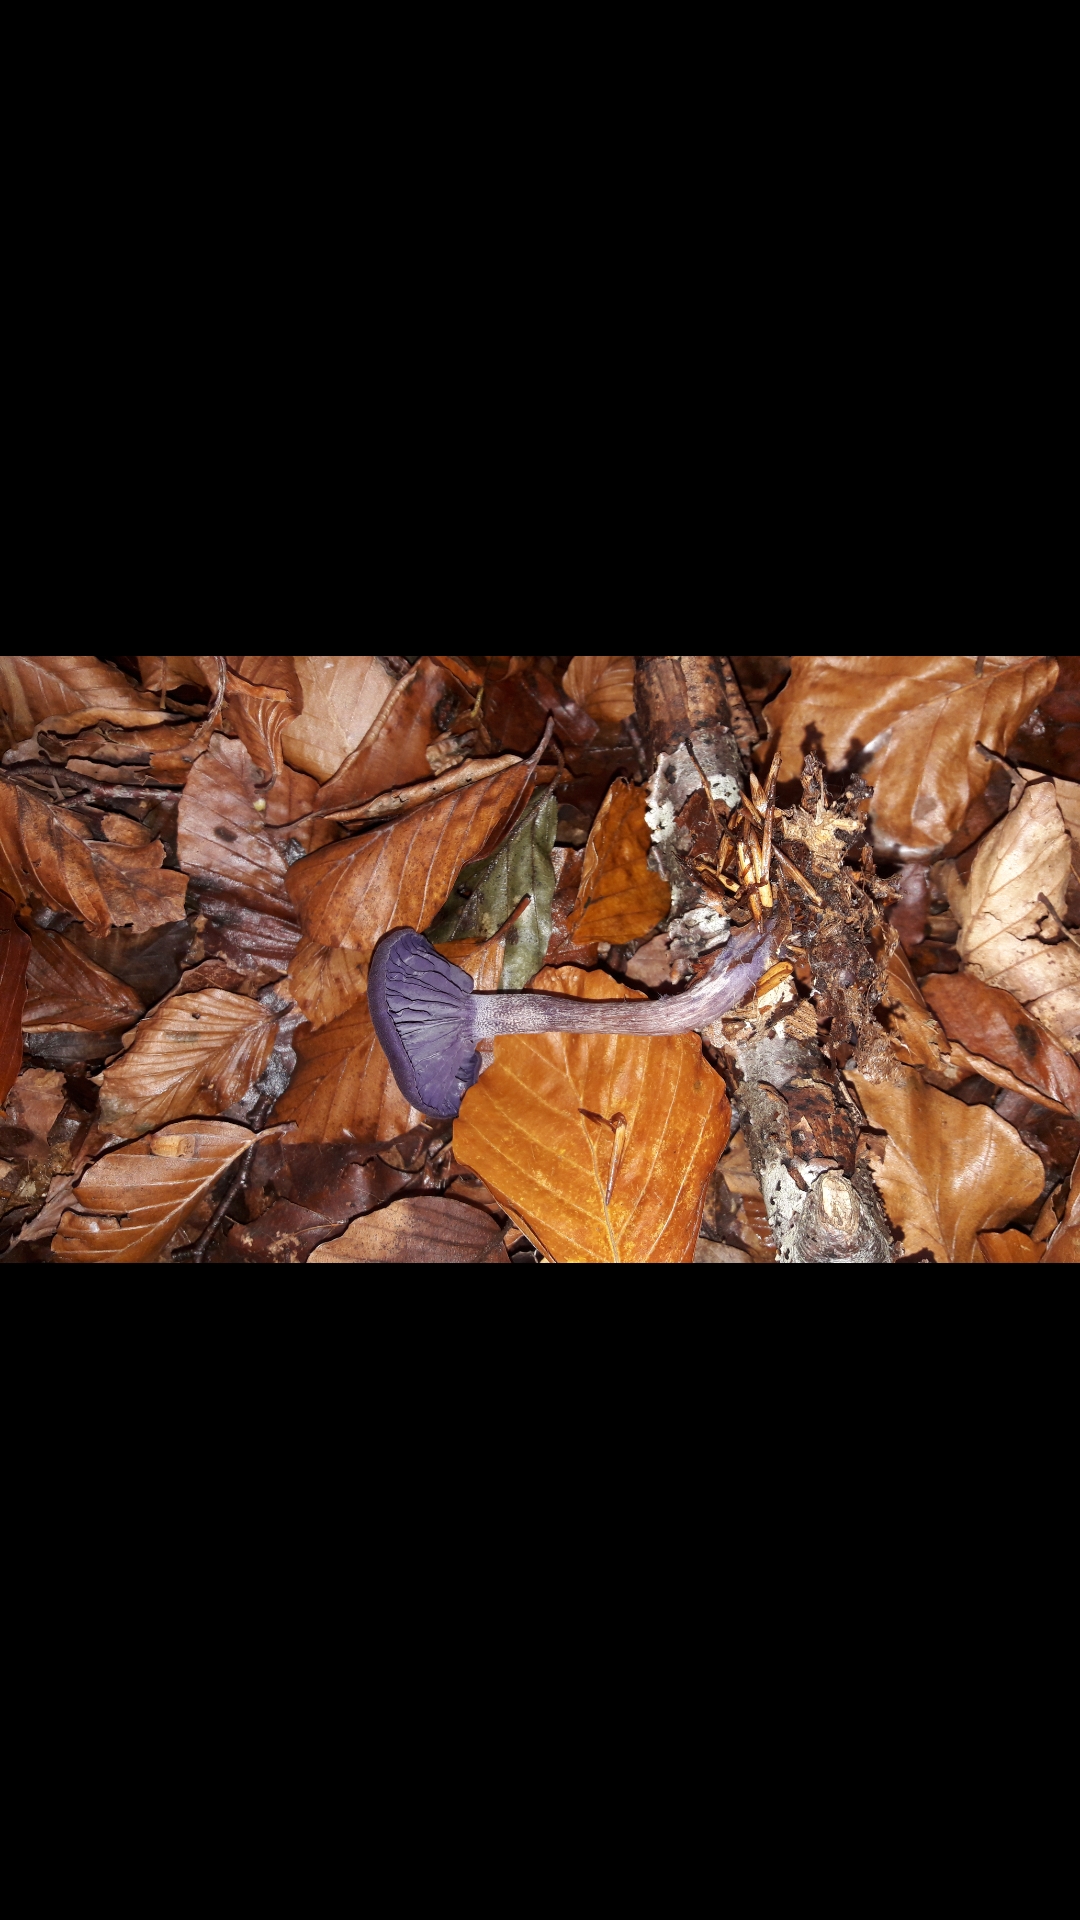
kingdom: Fungi
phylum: Basidiomycota
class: Agaricomycetes
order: Agaricales
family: Hydnangiaceae
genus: Laccaria
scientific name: Laccaria amethystina
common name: violet ametysthat
